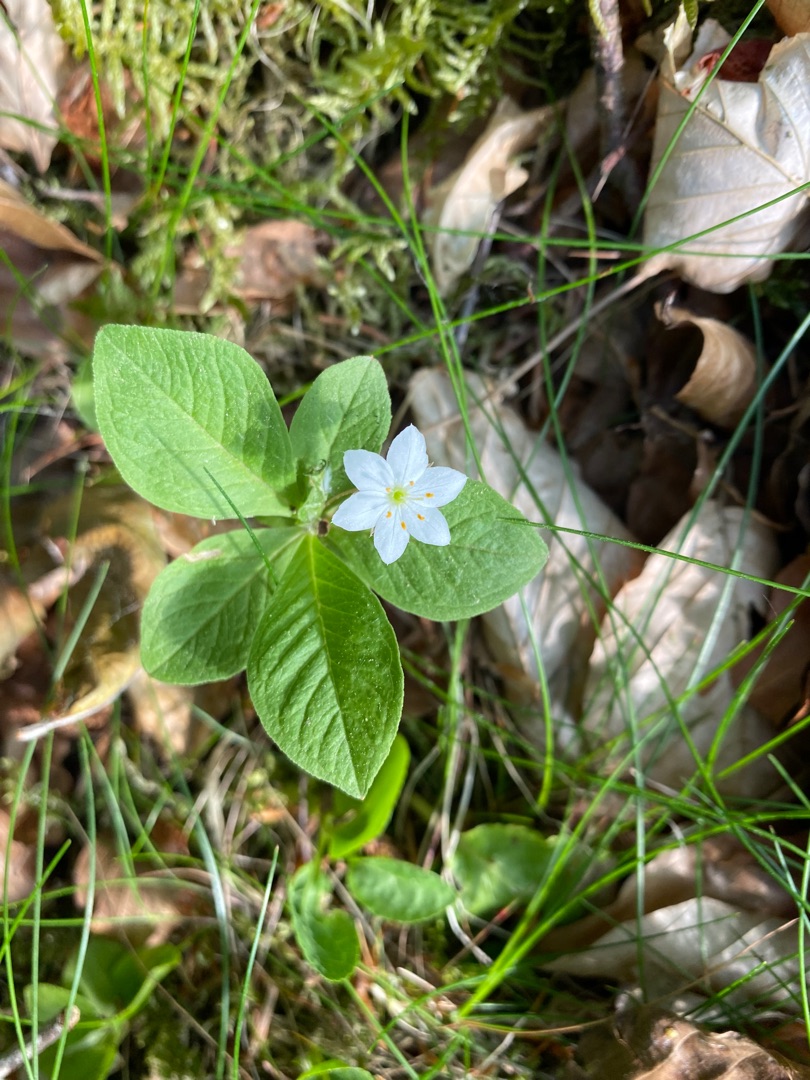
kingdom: Plantae
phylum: Tracheophyta
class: Magnoliopsida
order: Ericales
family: Primulaceae
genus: Lysimachia
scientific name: Lysimachia europaea
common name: Skovstjerne
